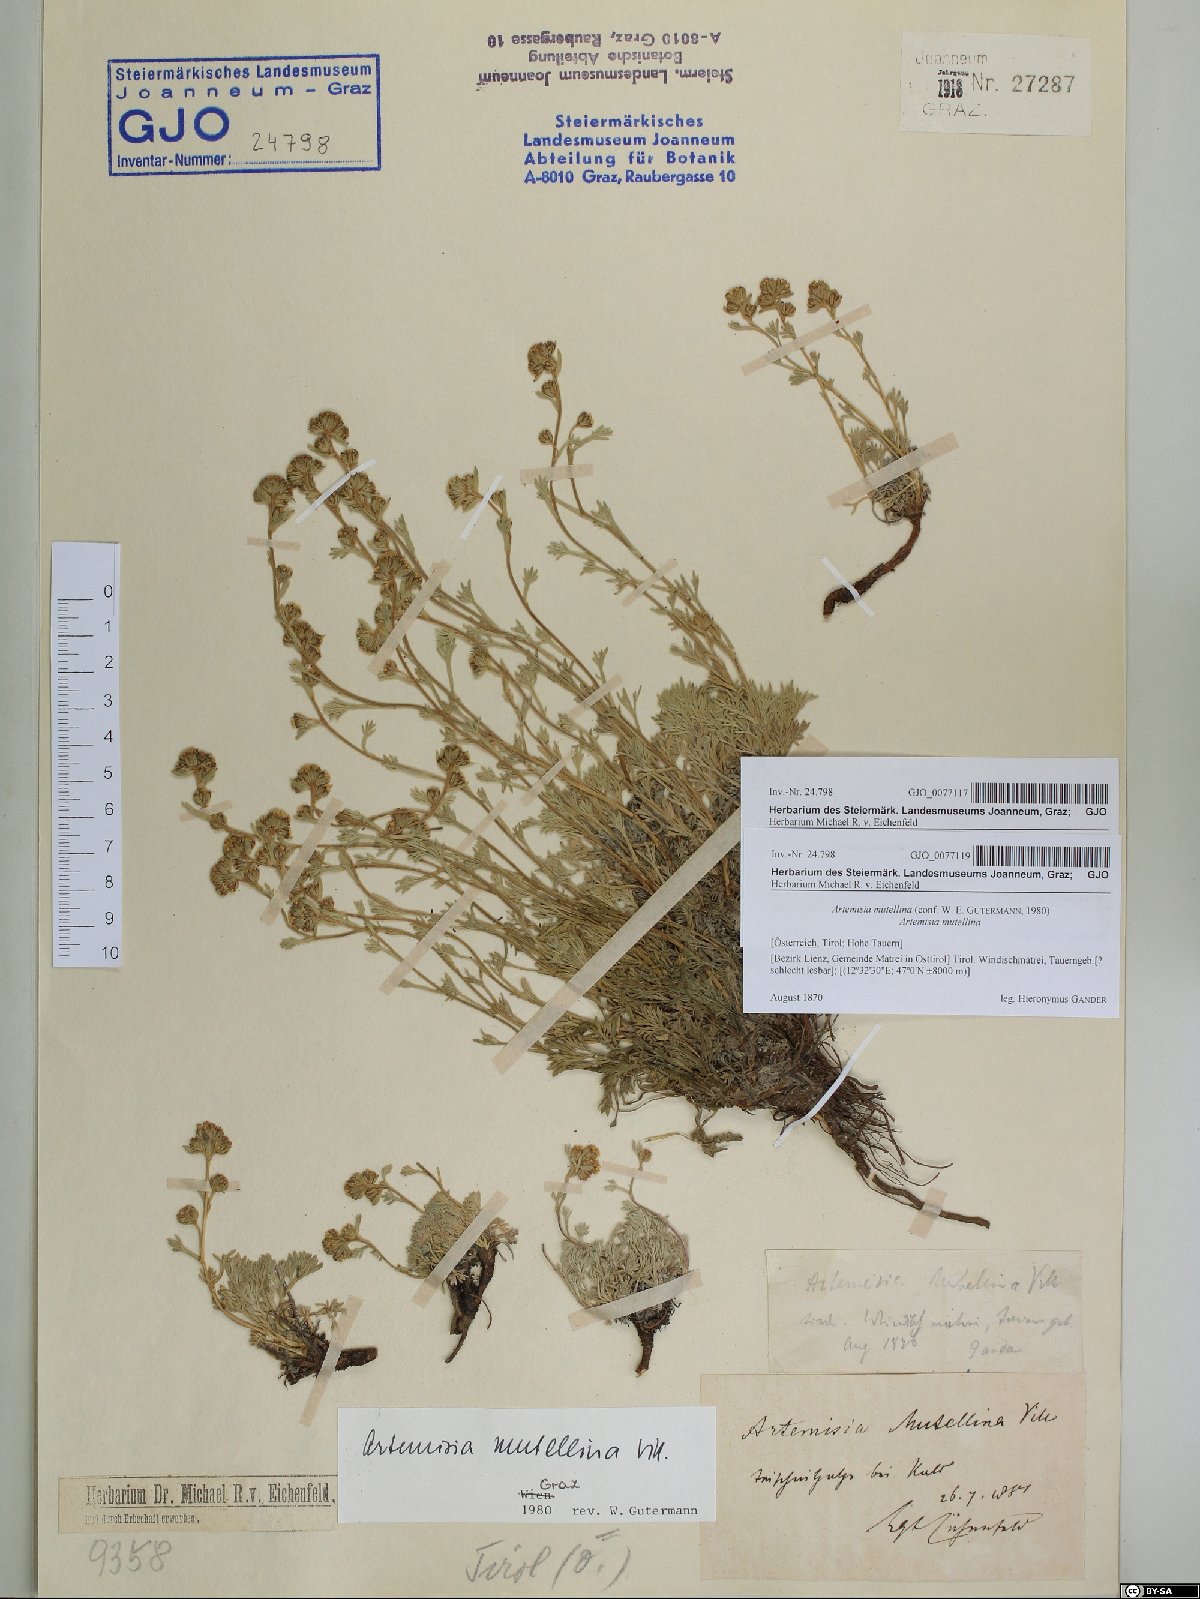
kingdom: Plantae
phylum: Tracheophyta
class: Magnoliopsida
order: Asterales
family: Asteraceae
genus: Artemisia
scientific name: Artemisia mutellina
